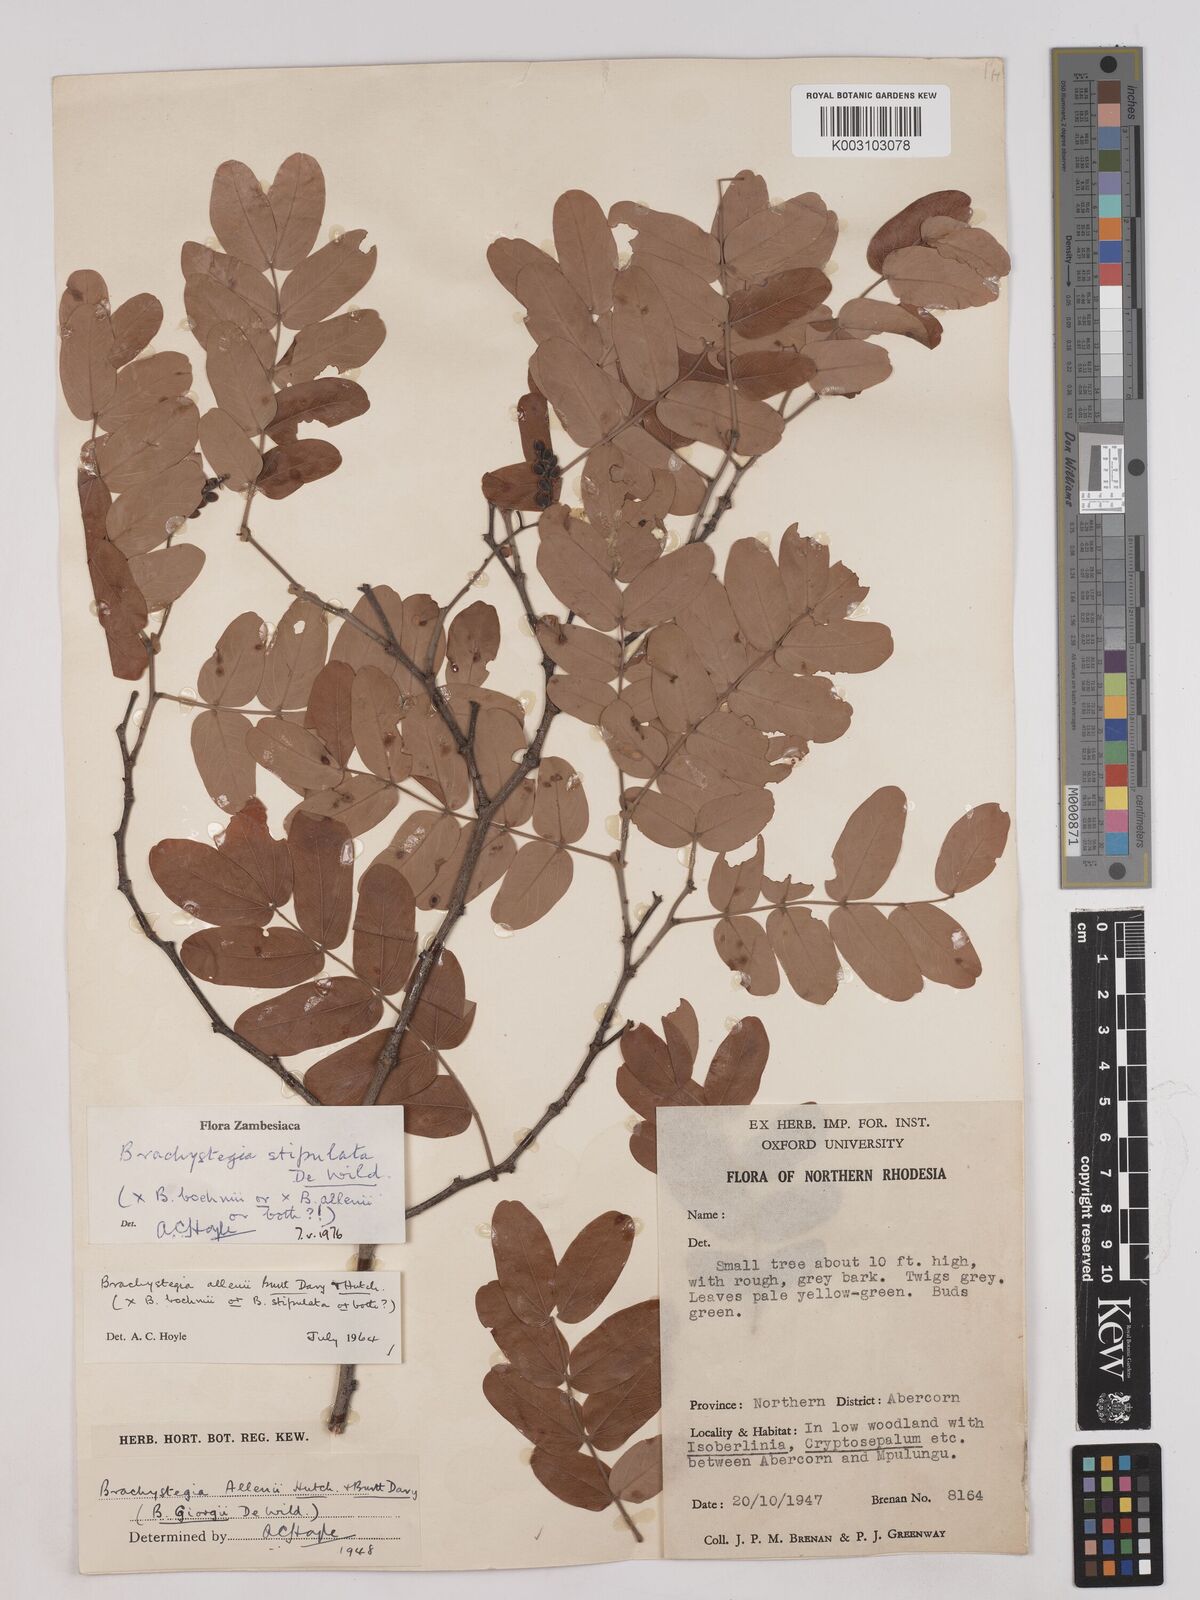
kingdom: Plantae
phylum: Tracheophyta
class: Magnoliopsida
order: Fabales
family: Fabaceae
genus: Brachystegia
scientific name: Brachystegia stipulata
